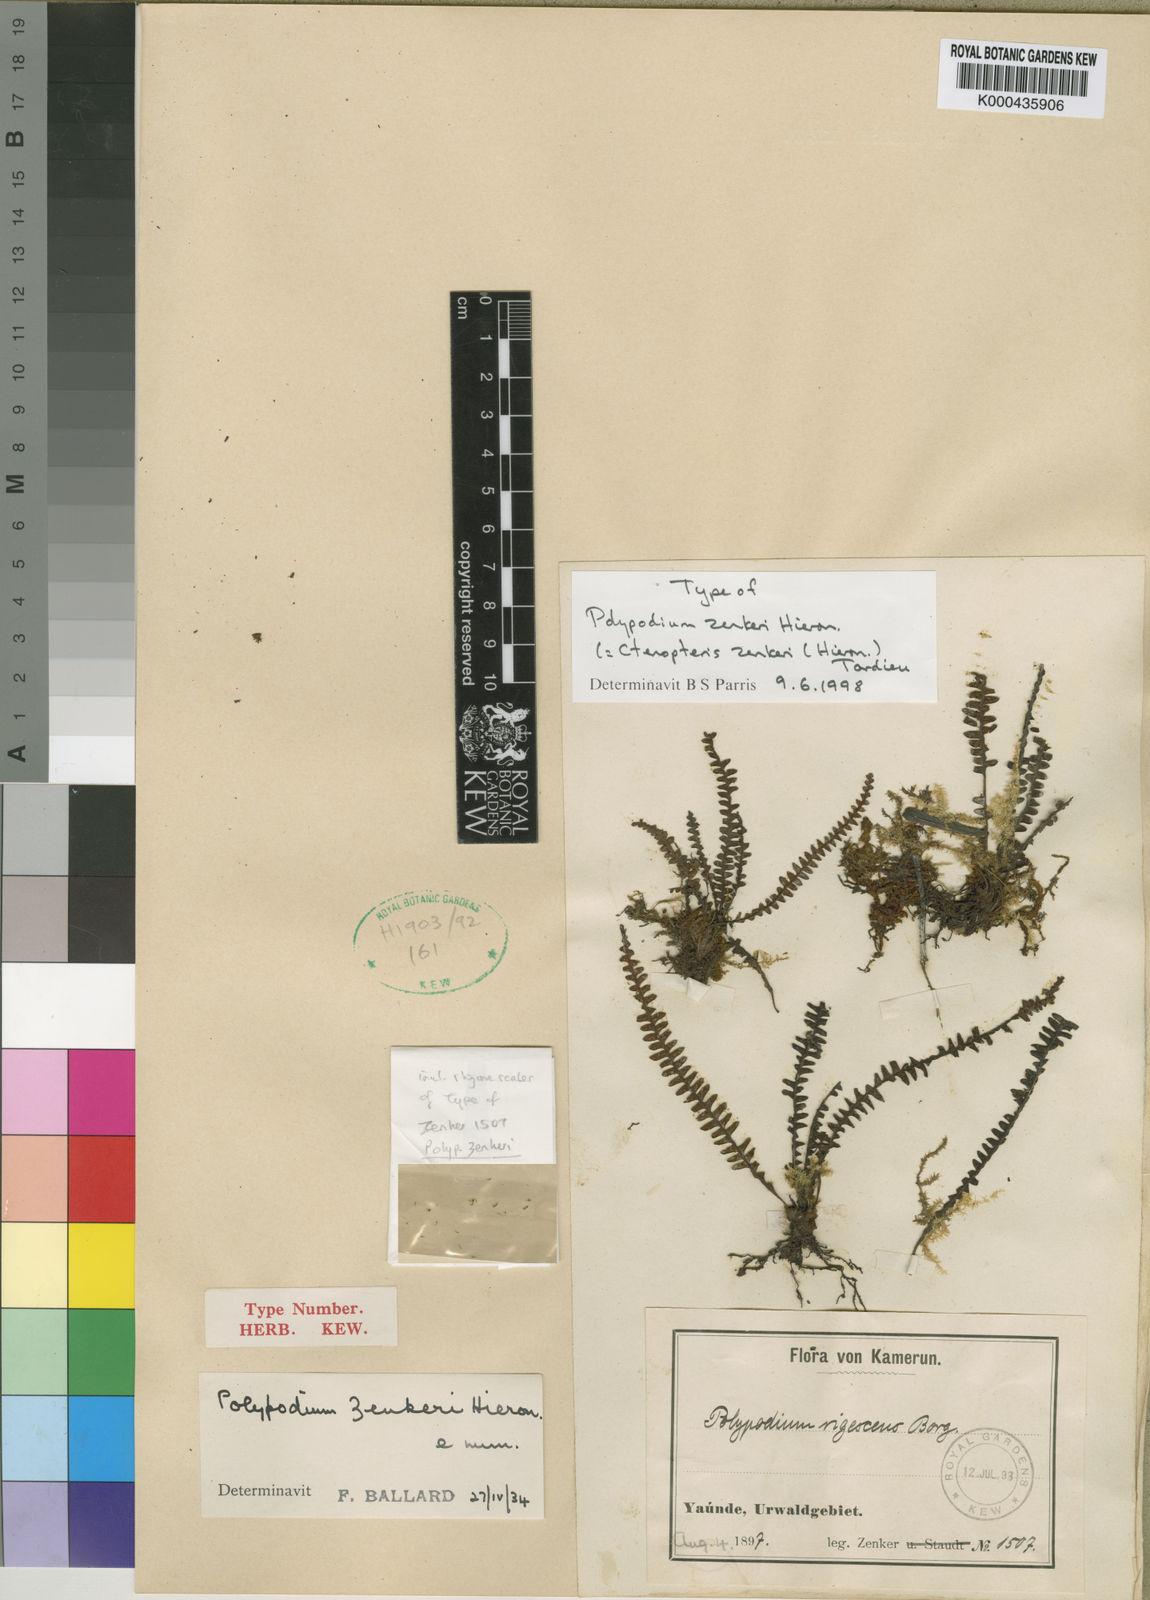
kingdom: Plantae
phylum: Tracheophyta
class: Polypodiopsida
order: Polypodiales
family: Polypodiaceae
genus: Ctenopterella
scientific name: Ctenopterella zenkeri
